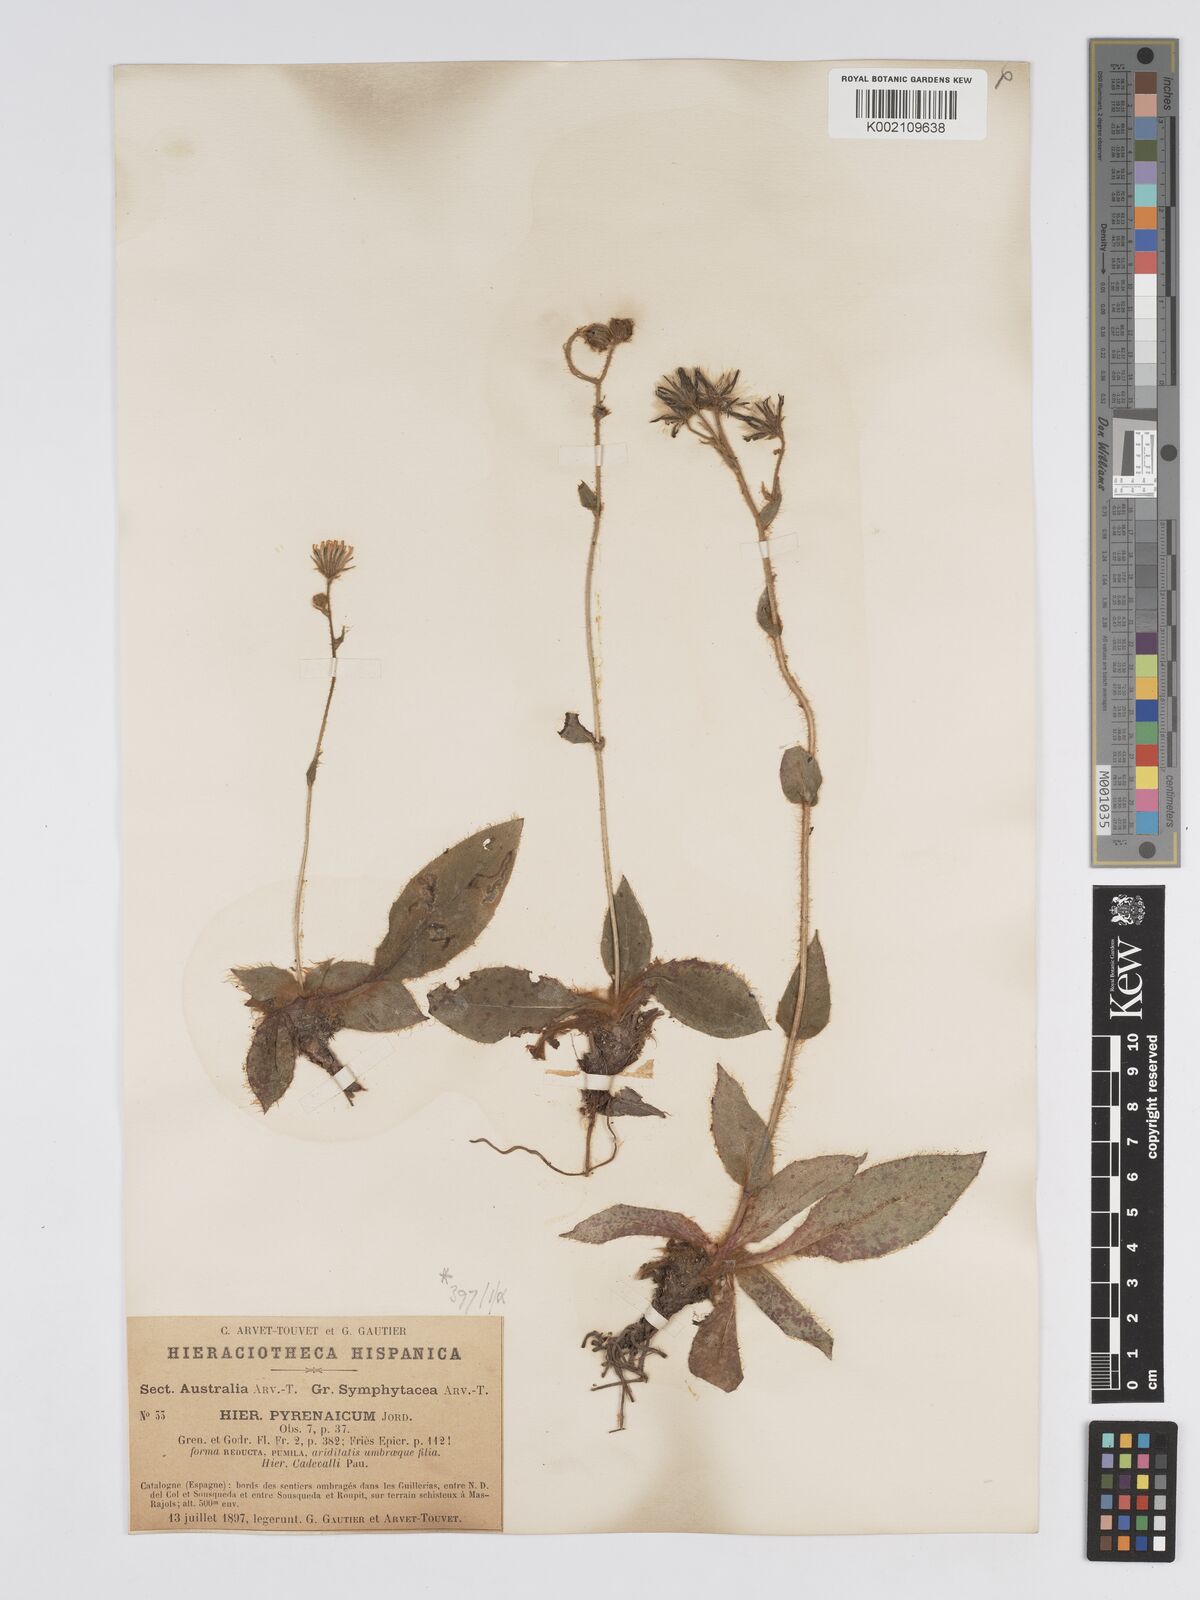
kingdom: Plantae
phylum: Tracheophyta
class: Magnoliopsida
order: Asterales
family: Asteraceae
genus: Hieracium
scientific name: Hieracium nobile
